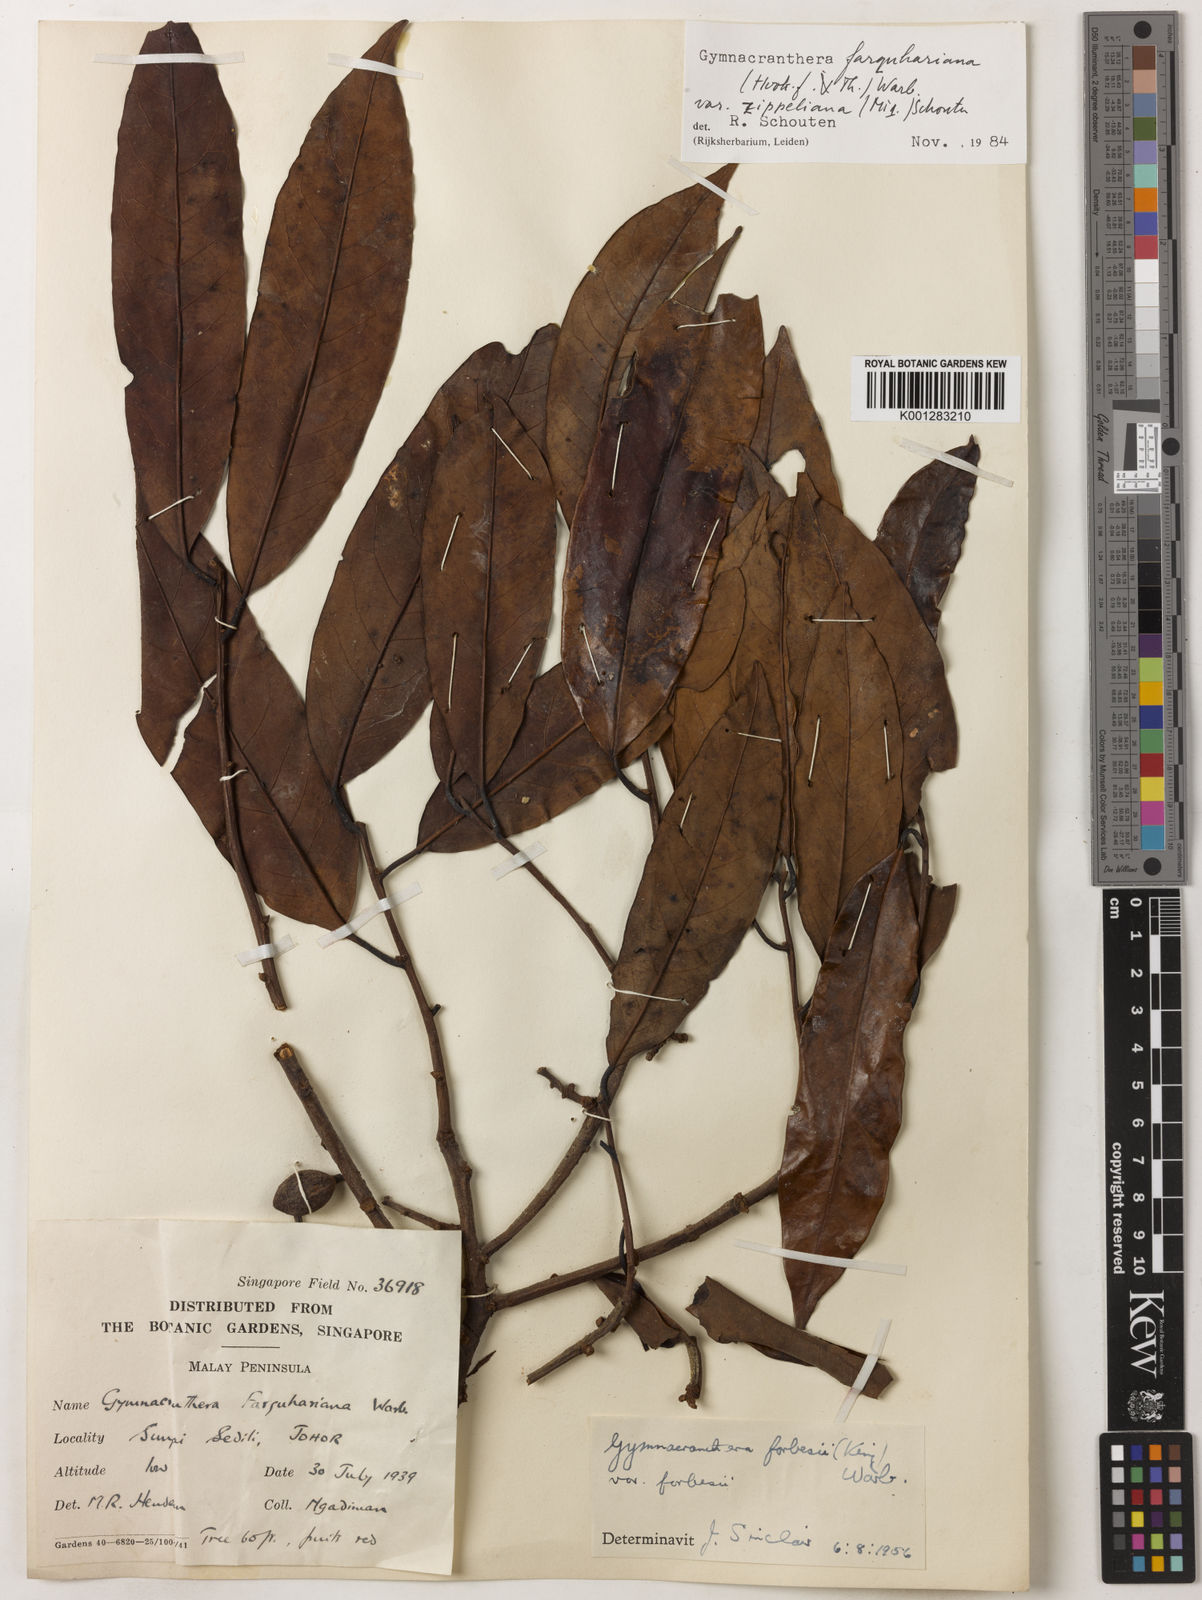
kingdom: Plantae
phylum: Tracheophyta
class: Magnoliopsida
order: Magnoliales
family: Myristicaceae
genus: Gymnacranthera
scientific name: Gymnacranthera farquhariana
